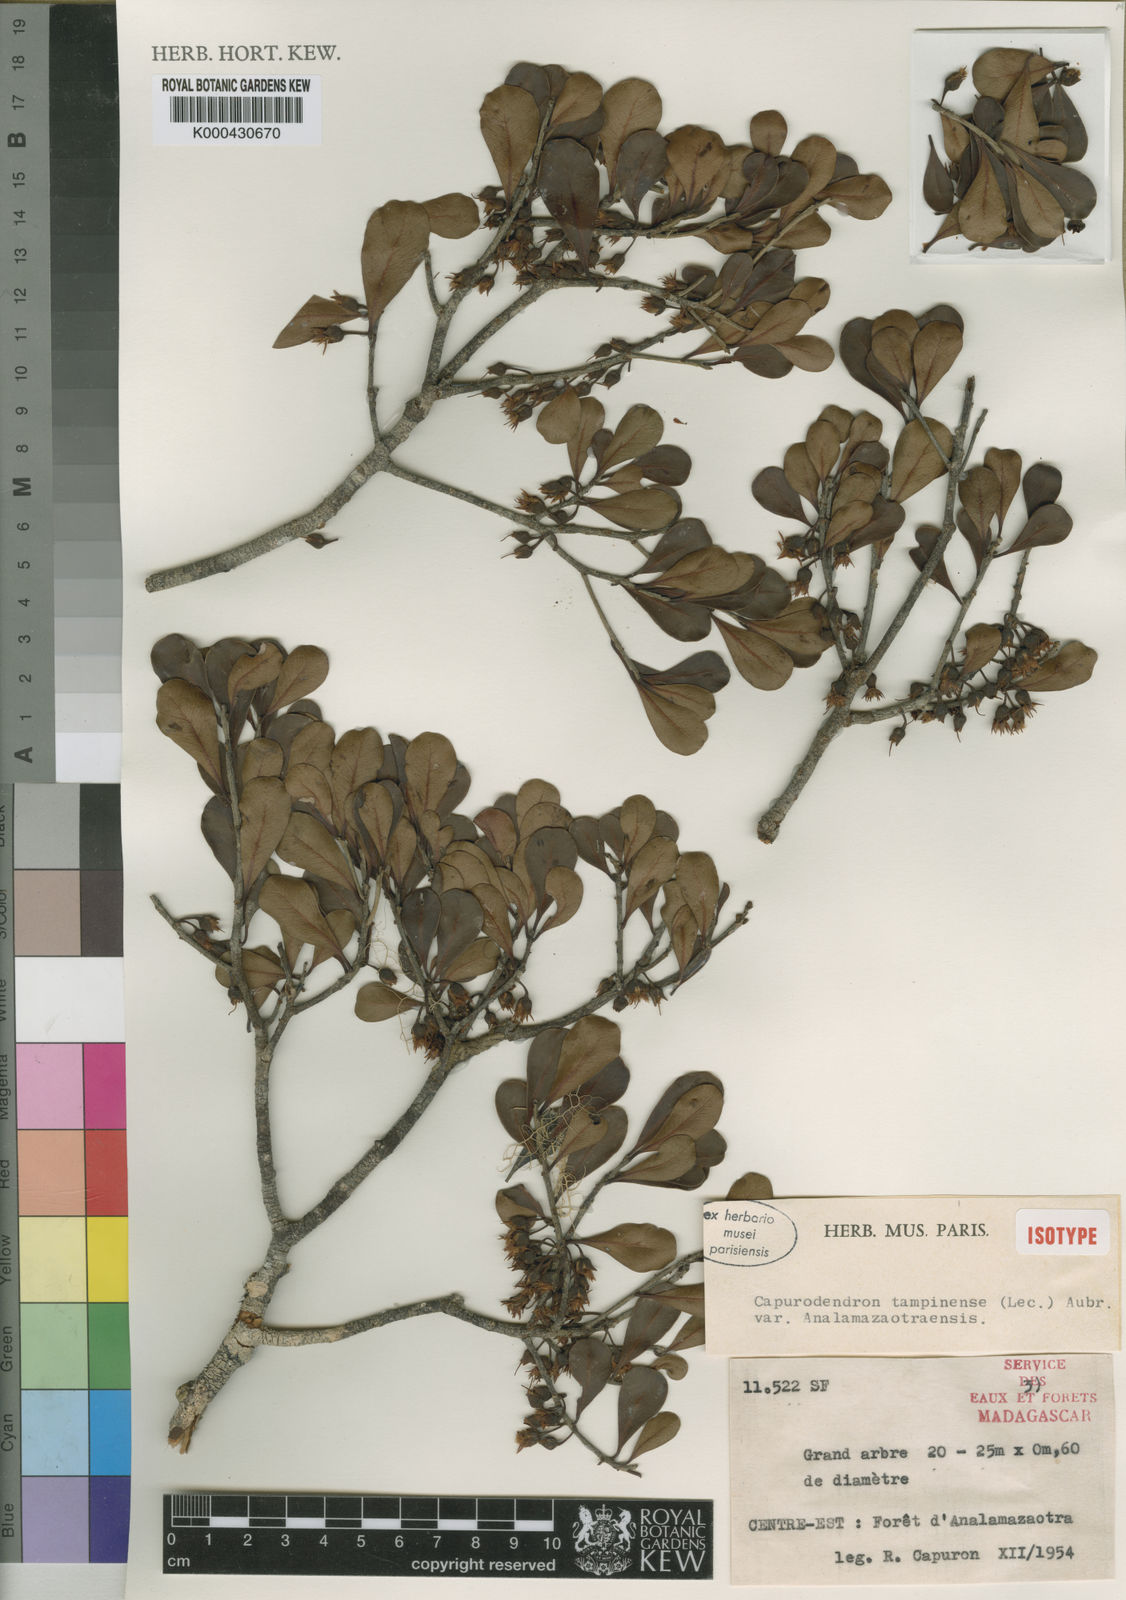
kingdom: Plantae
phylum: Tracheophyta
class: Magnoliopsida
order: Ericales
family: Sapotaceae
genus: Capurodendron
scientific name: Capurodendron
